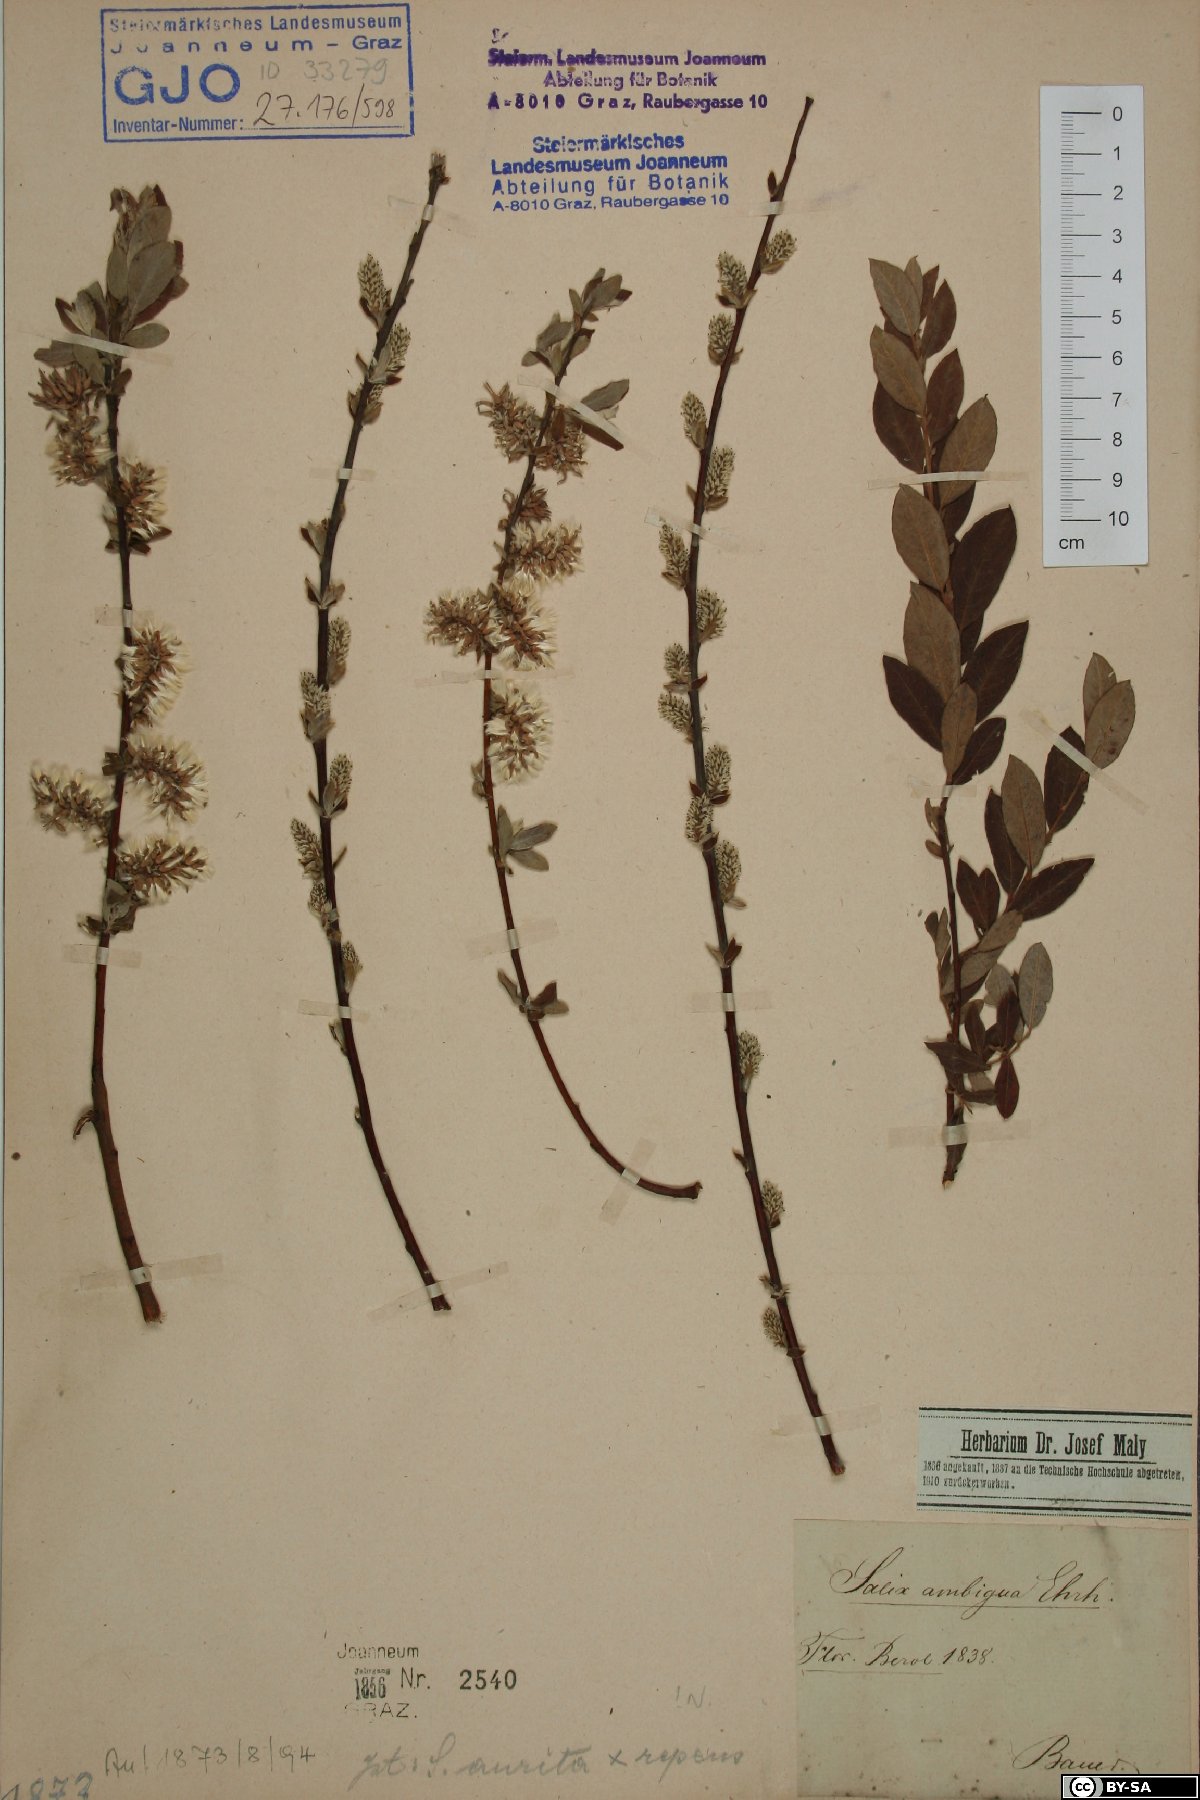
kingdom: Plantae
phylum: Tracheophyta
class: Magnoliopsida
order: Malpighiales
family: Salicaceae
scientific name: Salicaceae
